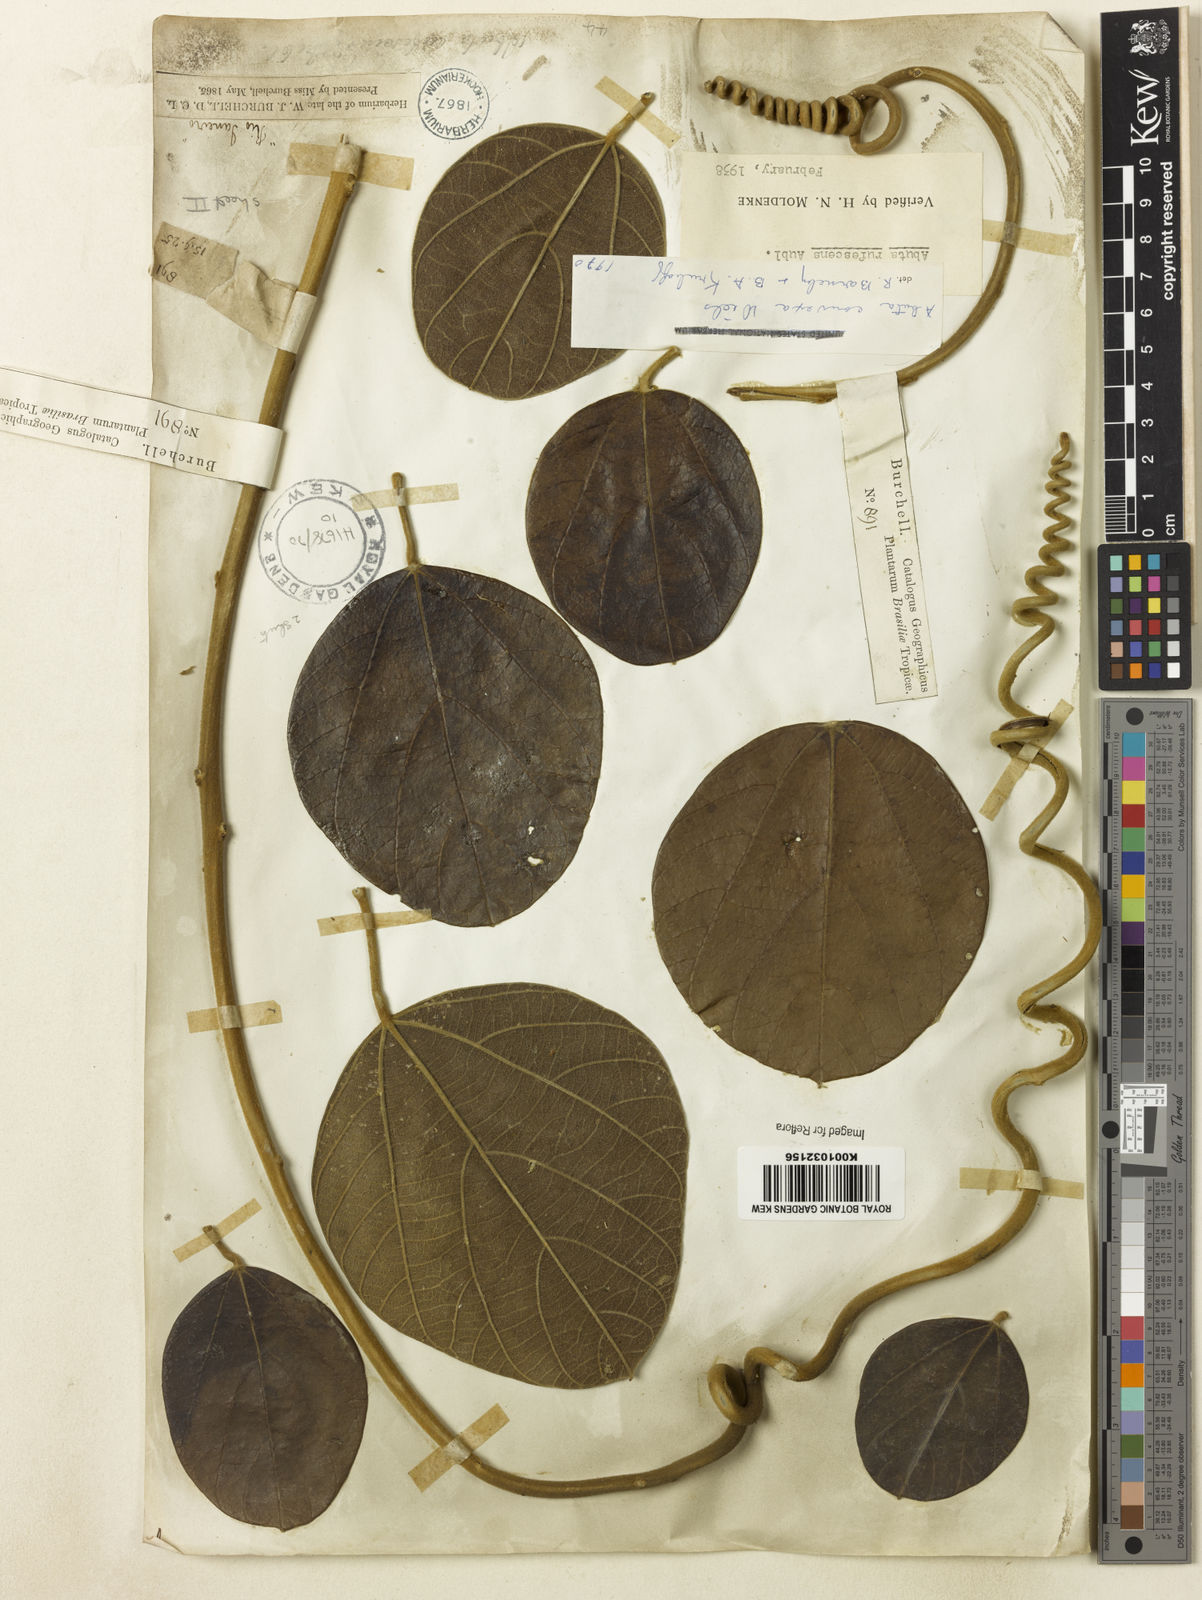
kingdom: Plantae
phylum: Tracheophyta
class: Magnoliopsida
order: Ranunculales
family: Menispermaceae
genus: Abuta
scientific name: Abuta rufescens
